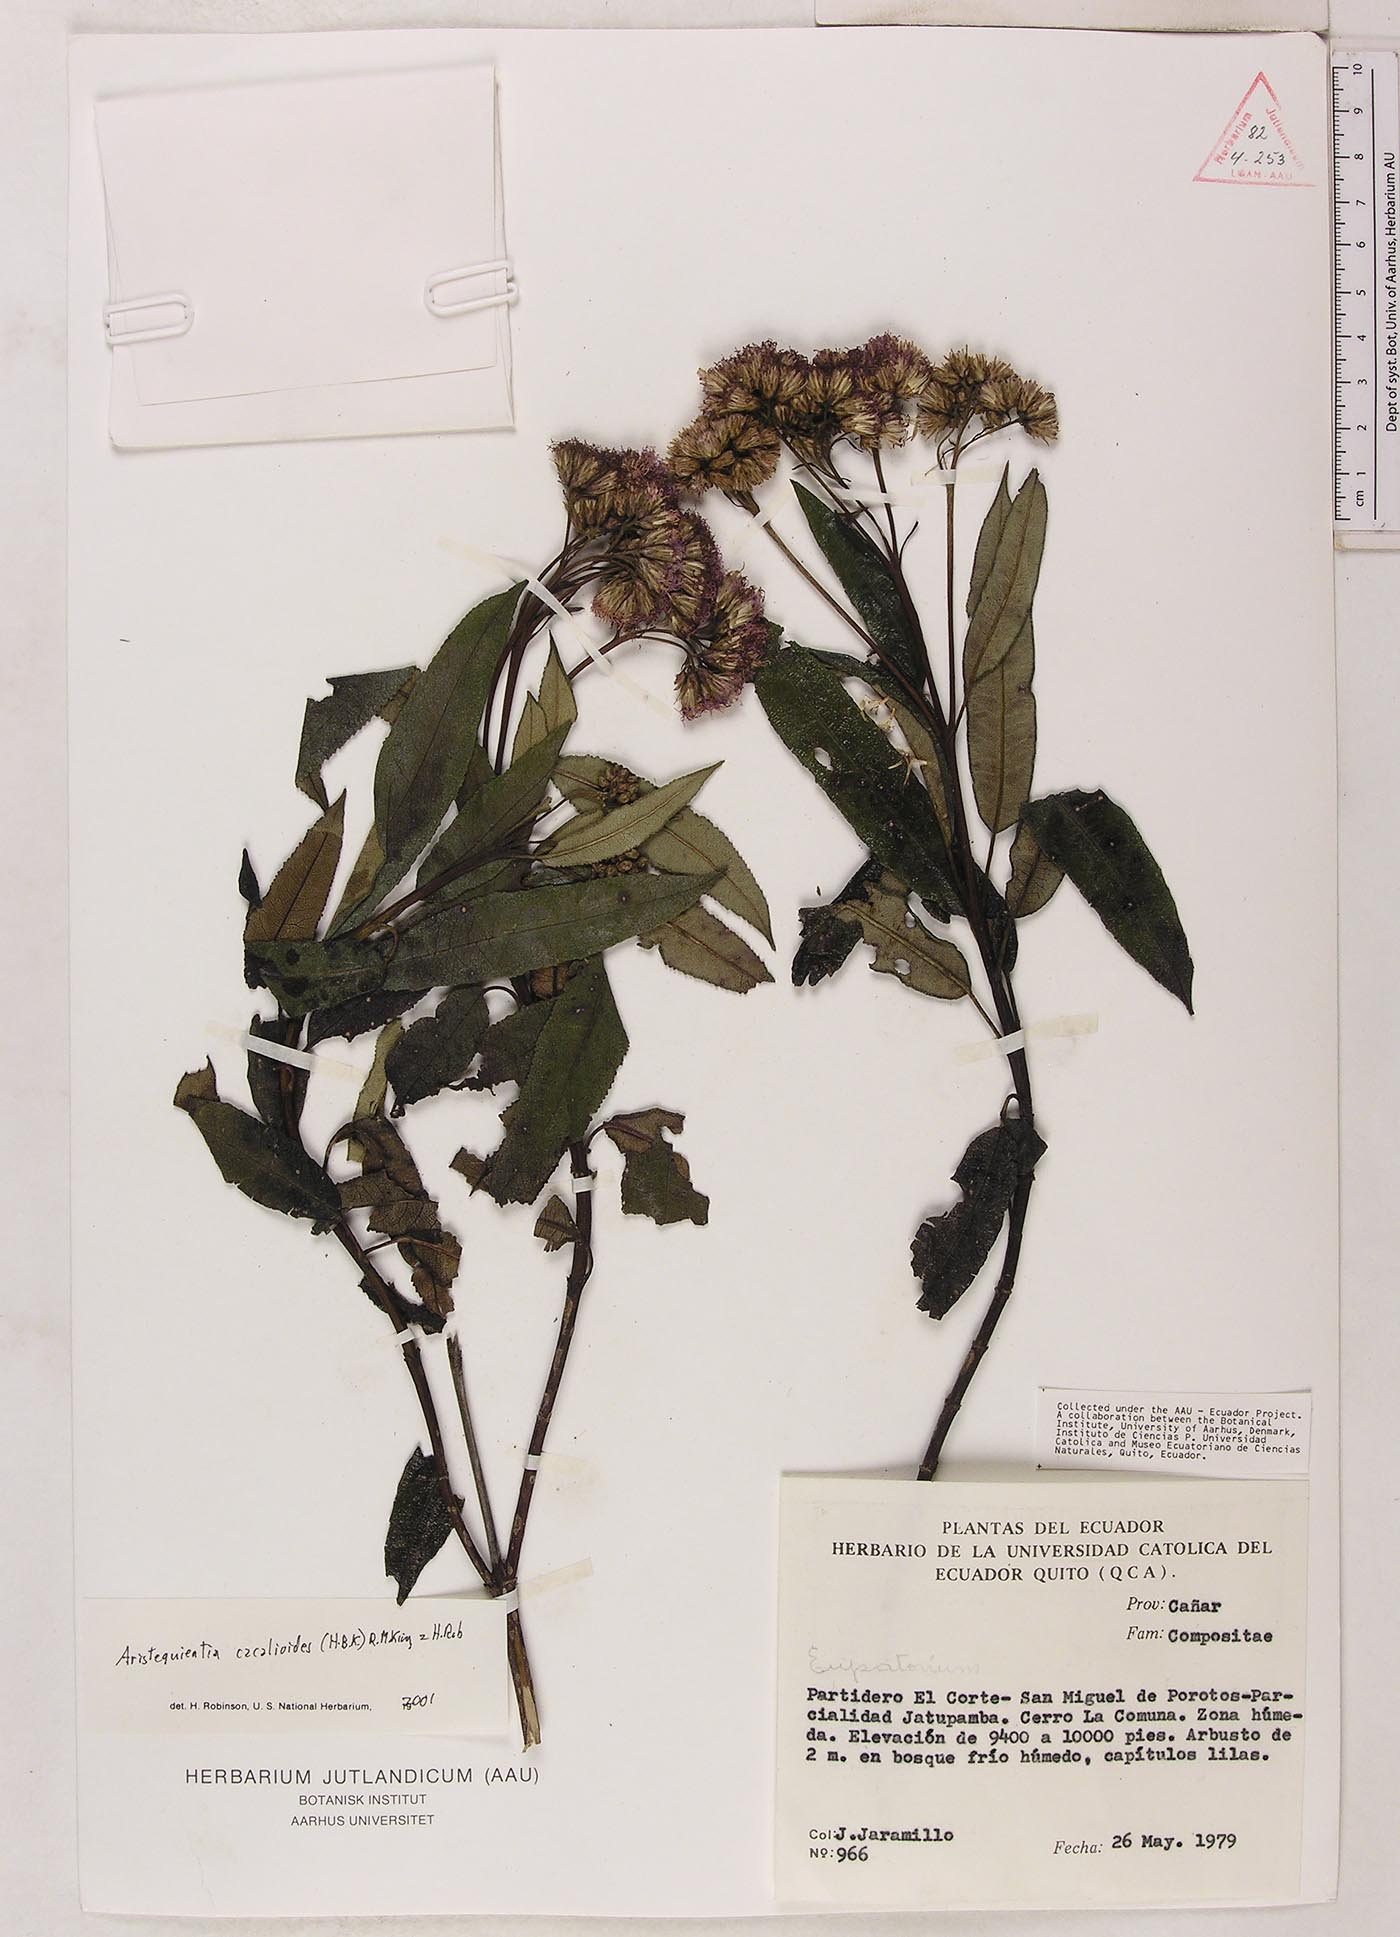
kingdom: Plantae
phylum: Tracheophyta
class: Magnoliopsida
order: Asterales
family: Asteraceae
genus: Aristeguietia
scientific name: Aristeguietia cacalioides
